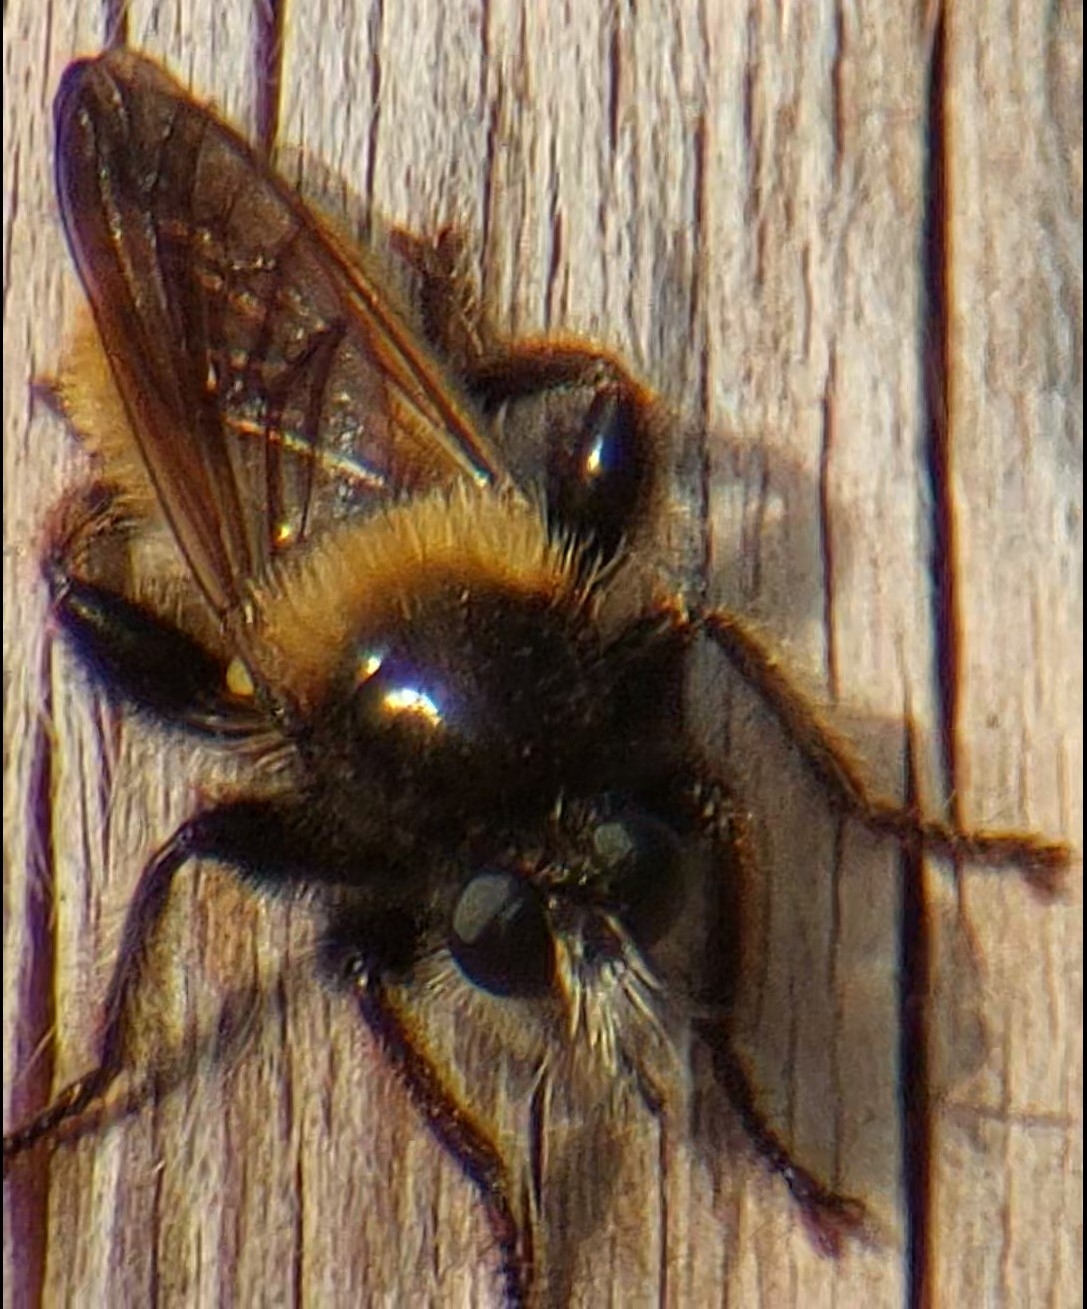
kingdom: Animalia
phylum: Arthropoda
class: Insecta
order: Diptera
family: Asilidae
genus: Laphria
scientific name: Laphria flava
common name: Gul vedrovflue
